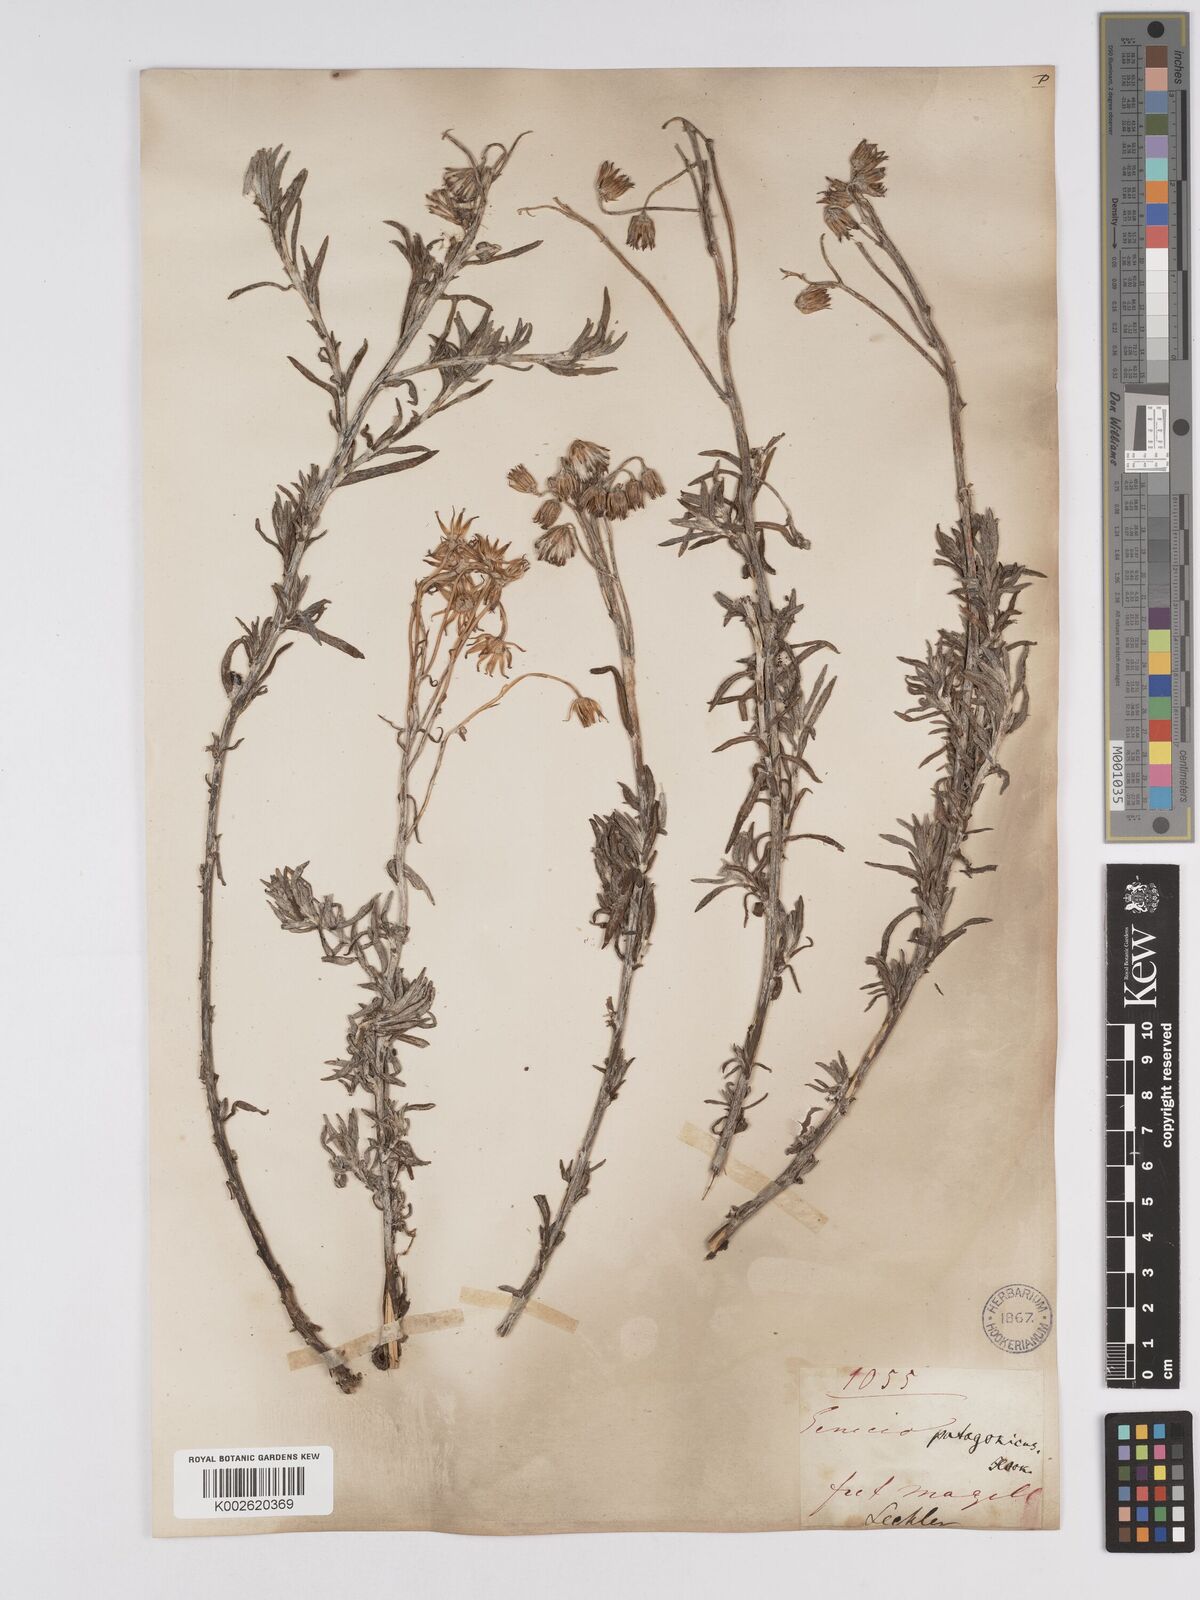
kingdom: Plantae
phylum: Tracheophyta
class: Magnoliopsida
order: Asterales
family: Asteraceae
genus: Senecio
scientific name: Senecio patagonicus
